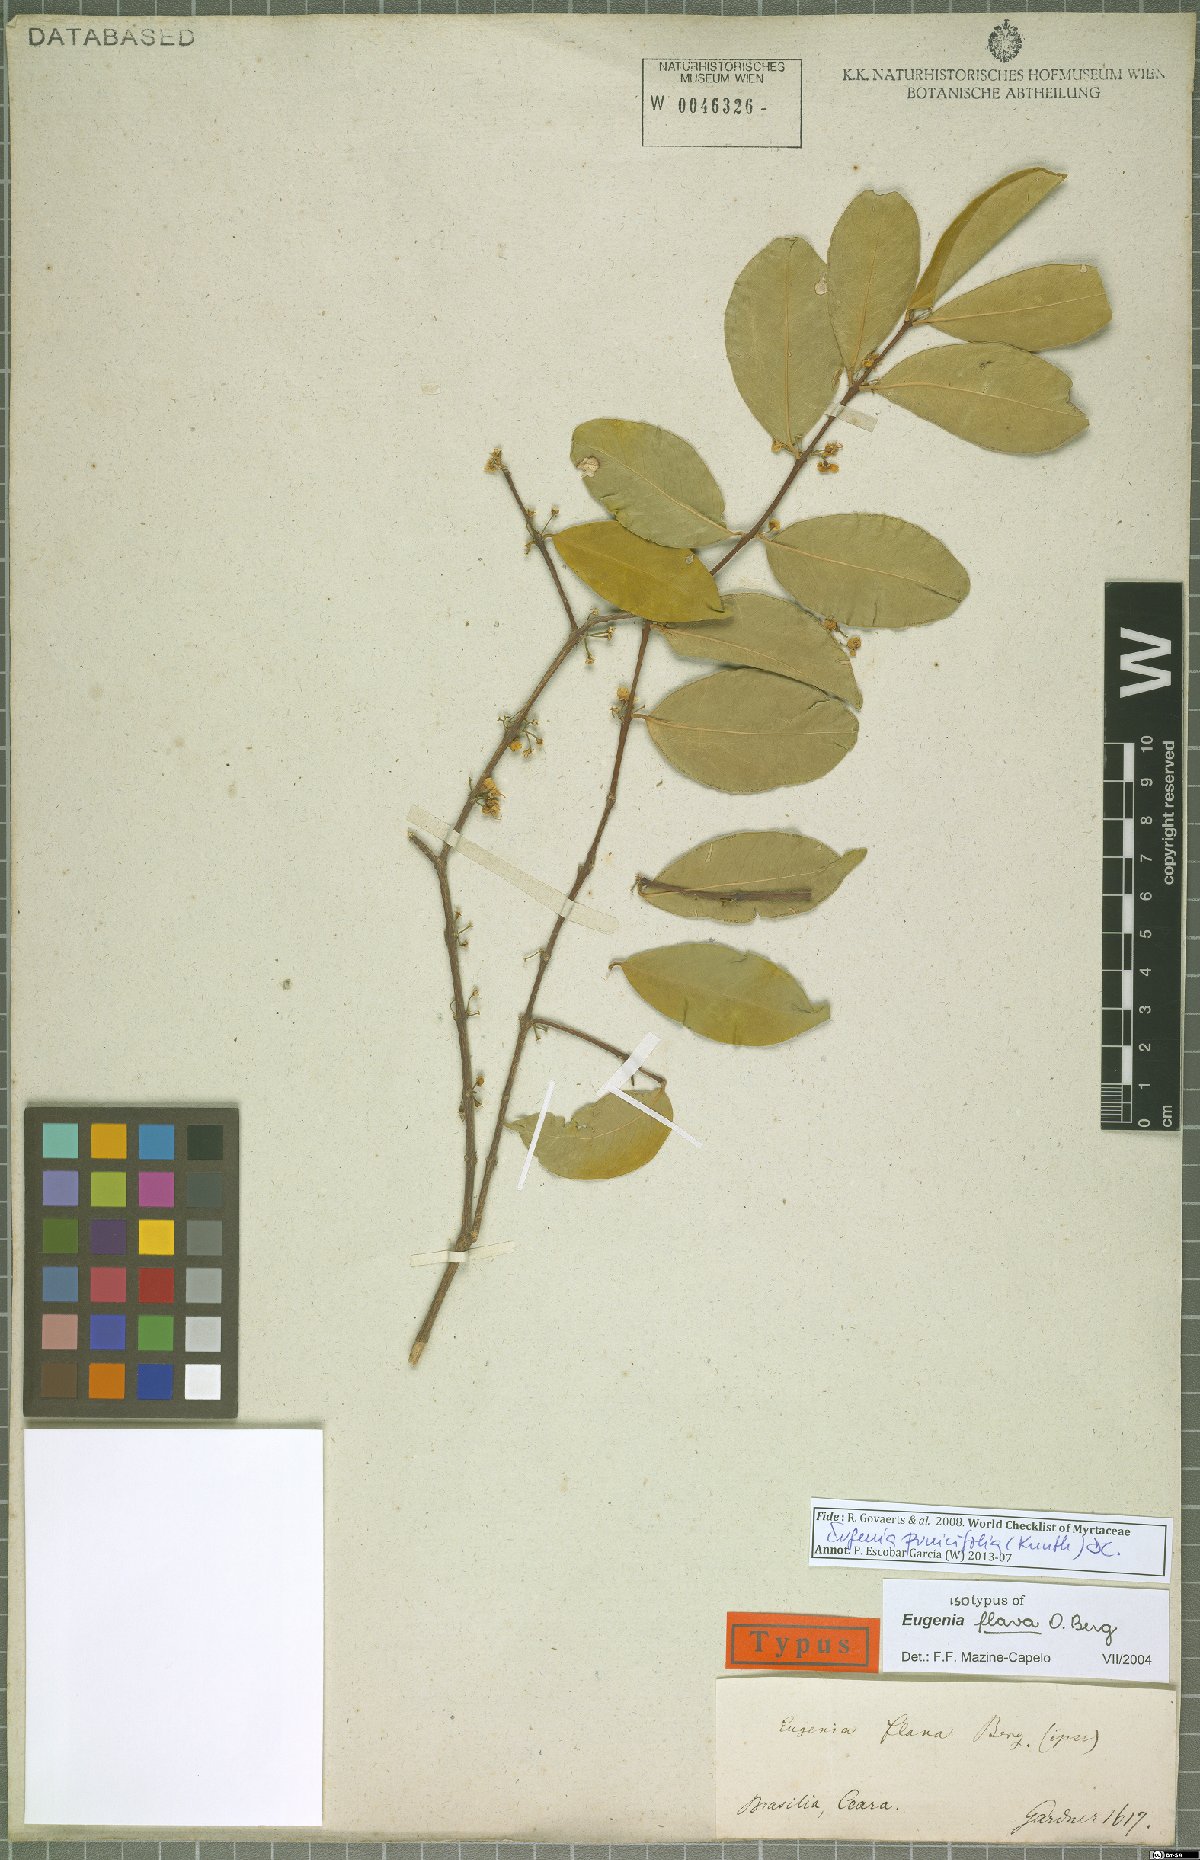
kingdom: Plantae
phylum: Tracheophyta
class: Magnoliopsida
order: Myrtales
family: Myrtaceae
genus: Eugenia
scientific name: Eugenia punicifolia
